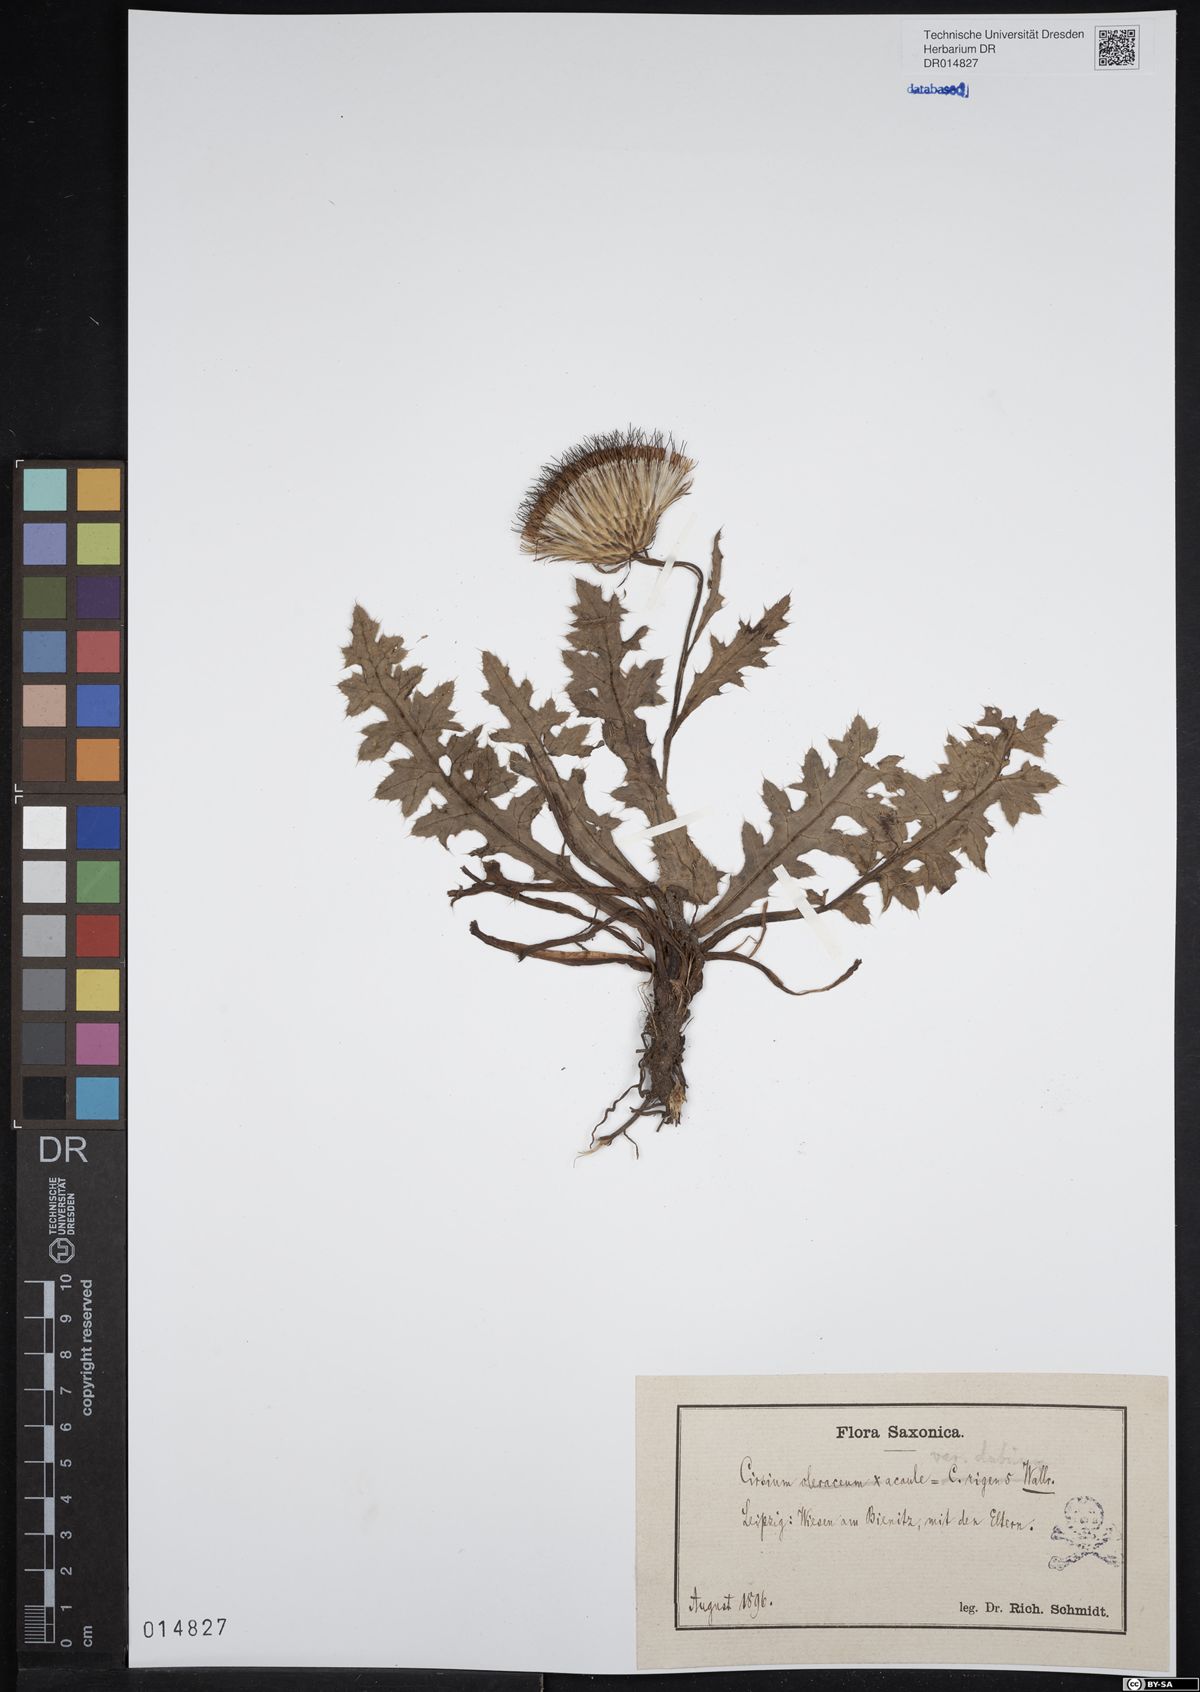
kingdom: Plantae
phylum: Tracheophyta
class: Magnoliopsida
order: Asterales
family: Asteraceae
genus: Cirsium
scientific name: Cirsium acaulon
